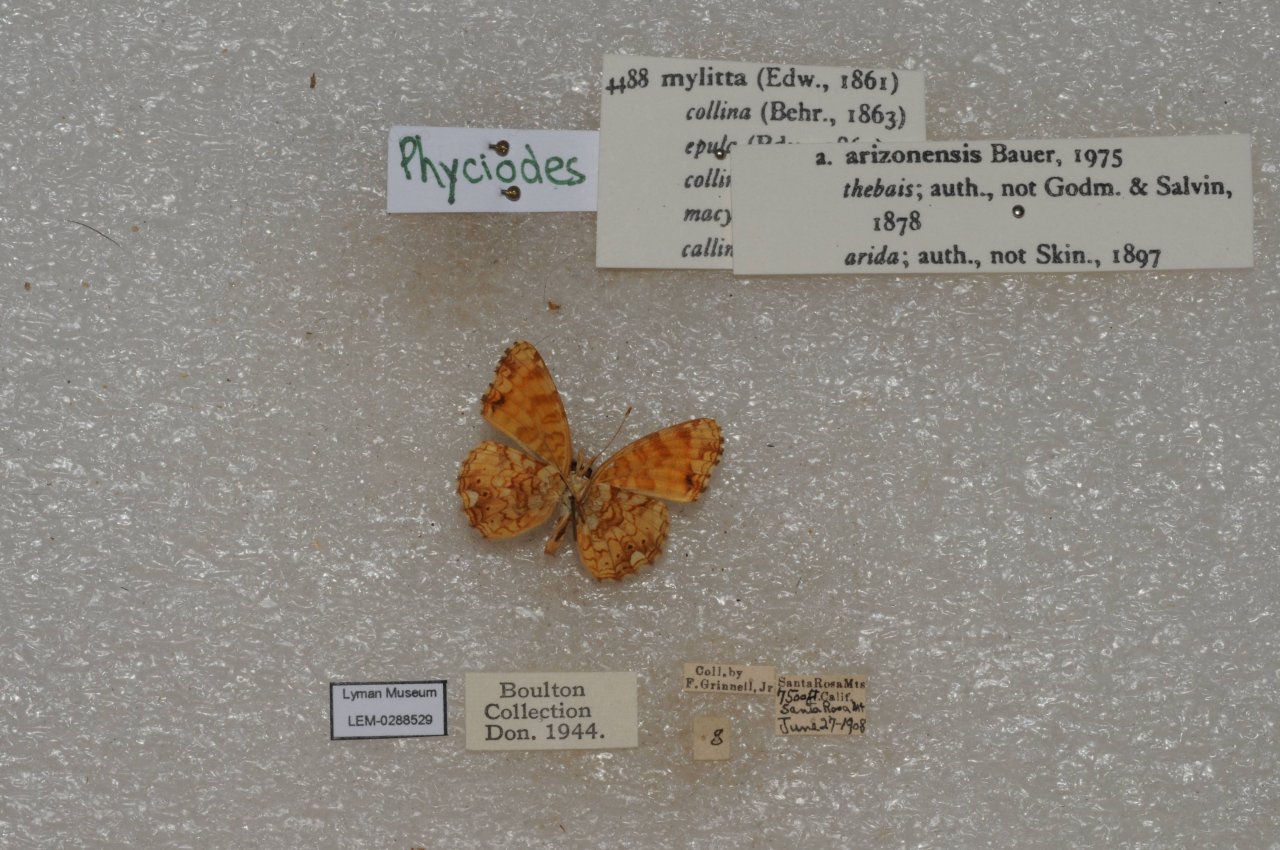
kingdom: Animalia
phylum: Arthropoda
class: Insecta
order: Lepidoptera
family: Nymphalidae
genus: Eresia
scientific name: Eresia aveyrona
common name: Mylitta Crescent
